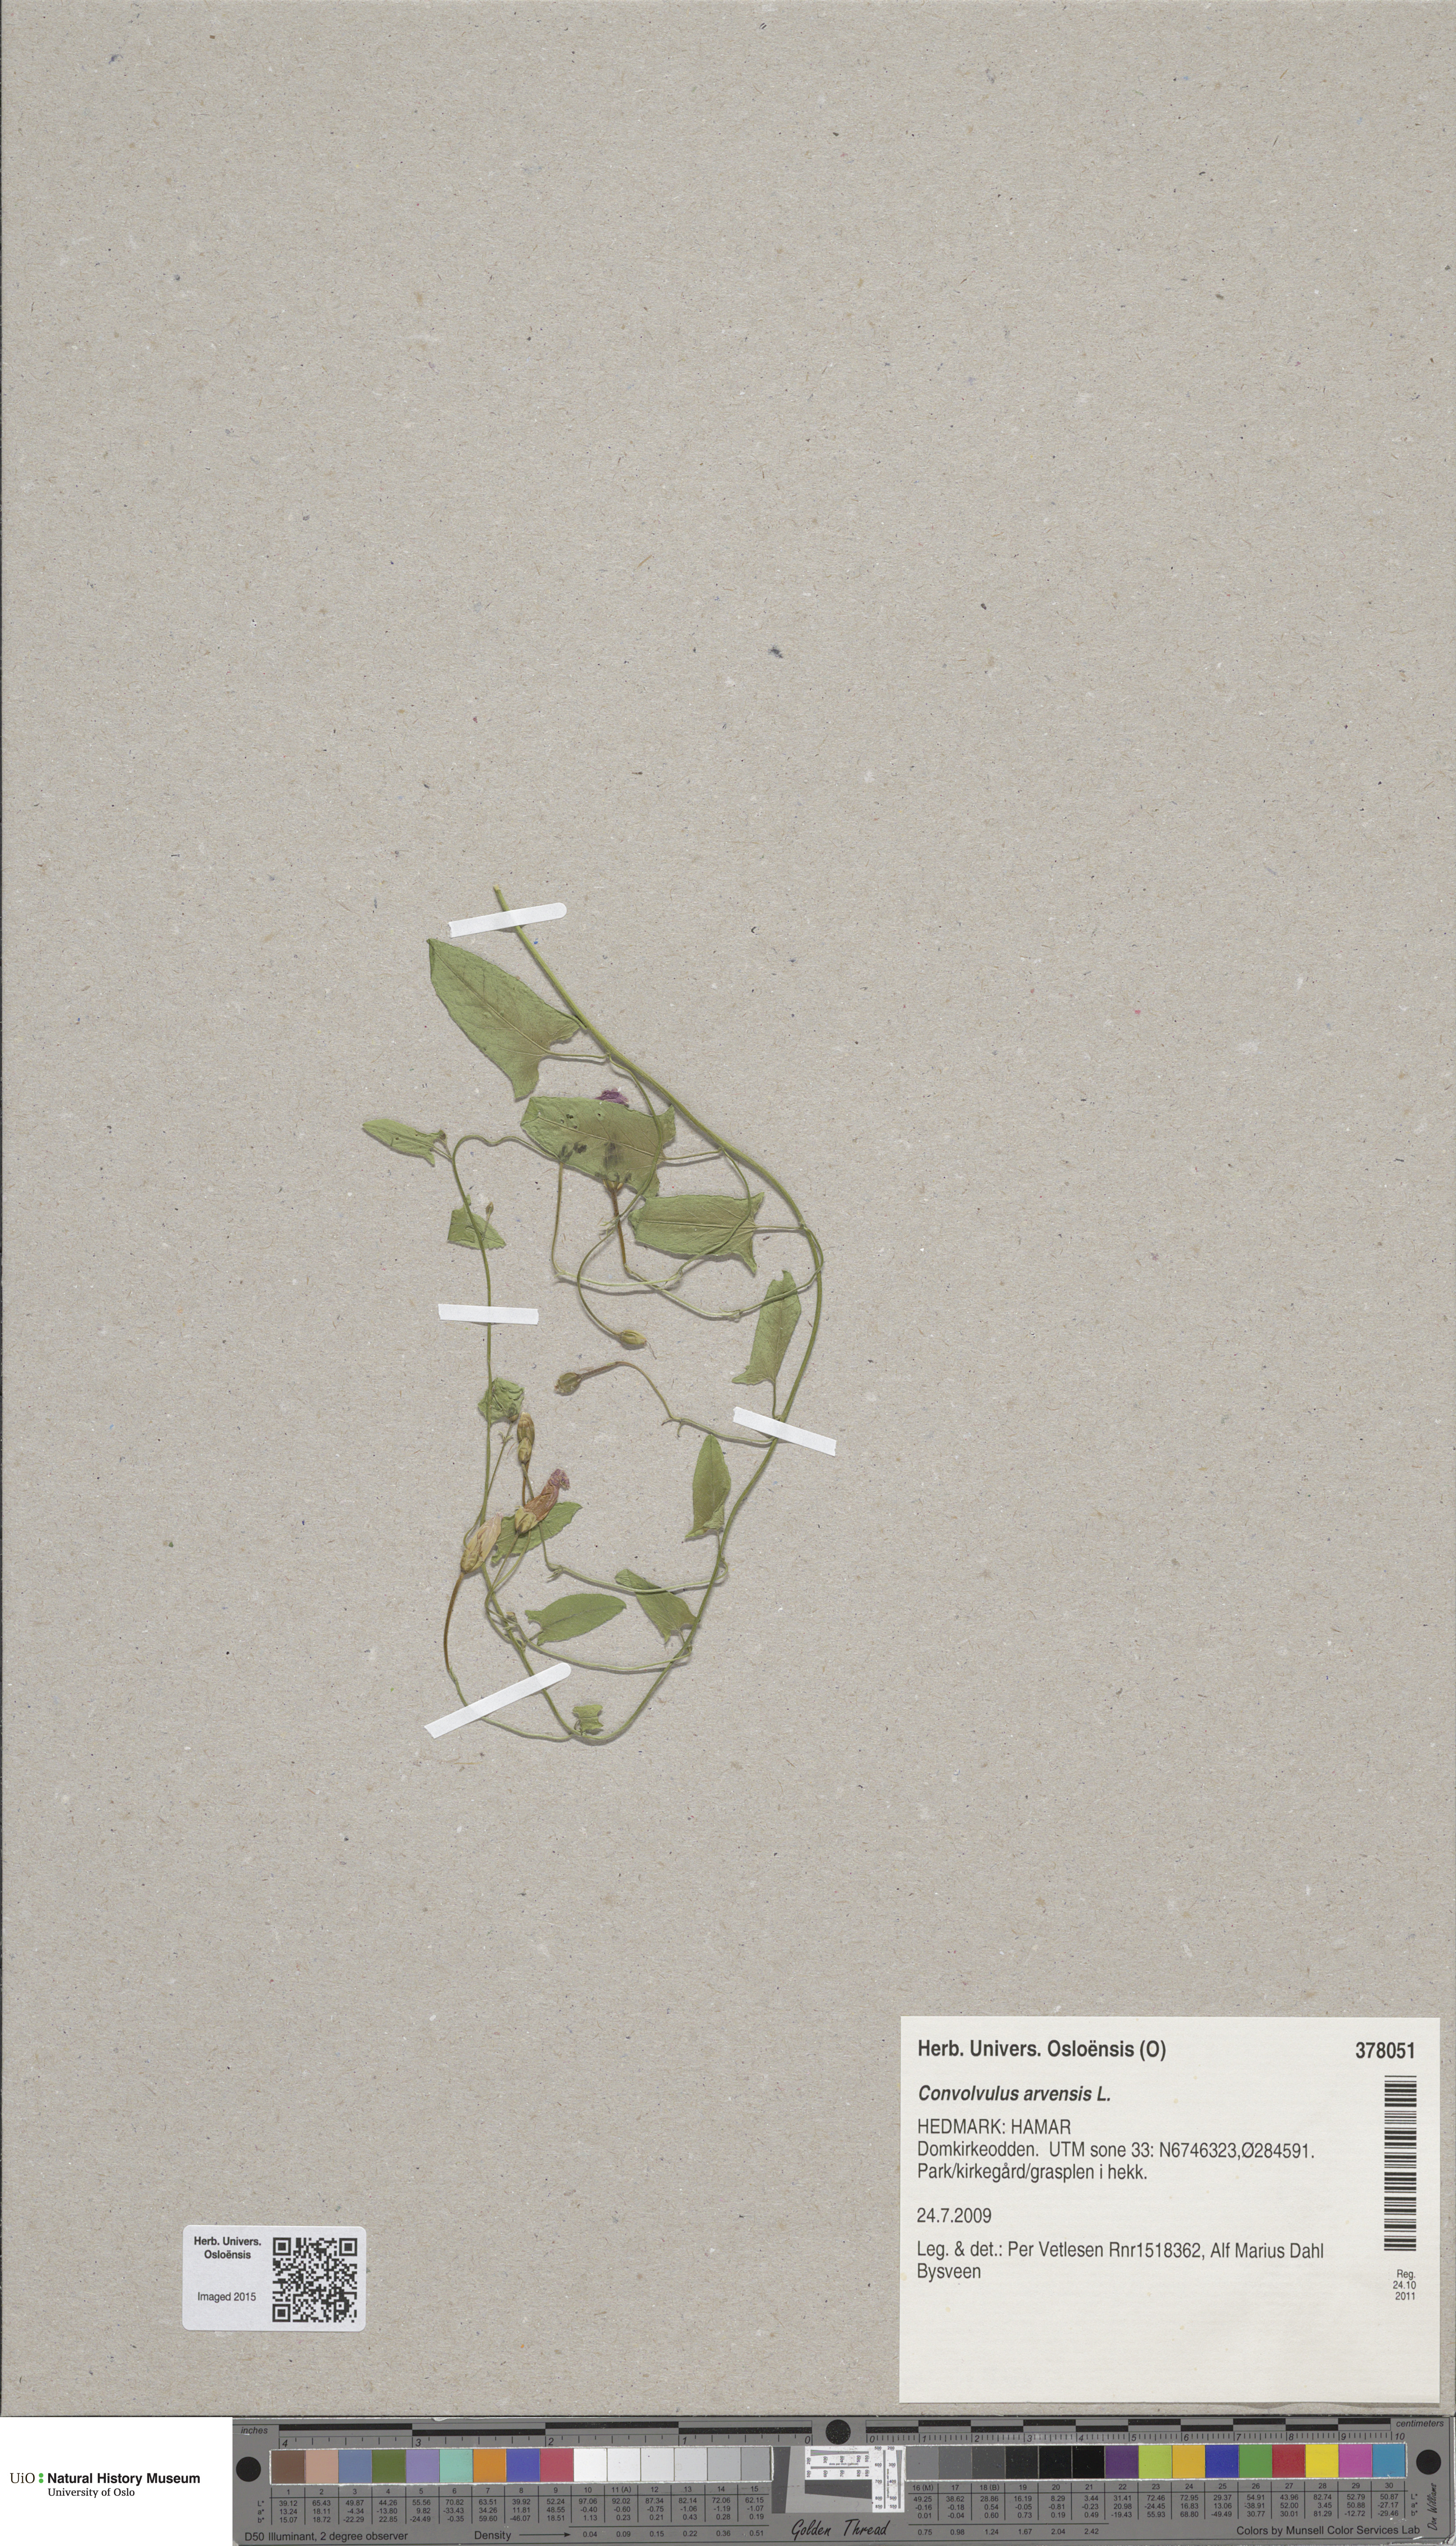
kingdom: Plantae
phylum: Tracheophyta
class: Magnoliopsida
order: Solanales
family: Convolvulaceae
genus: Convolvulus
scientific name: Convolvulus arvensis
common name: Field bindweed
